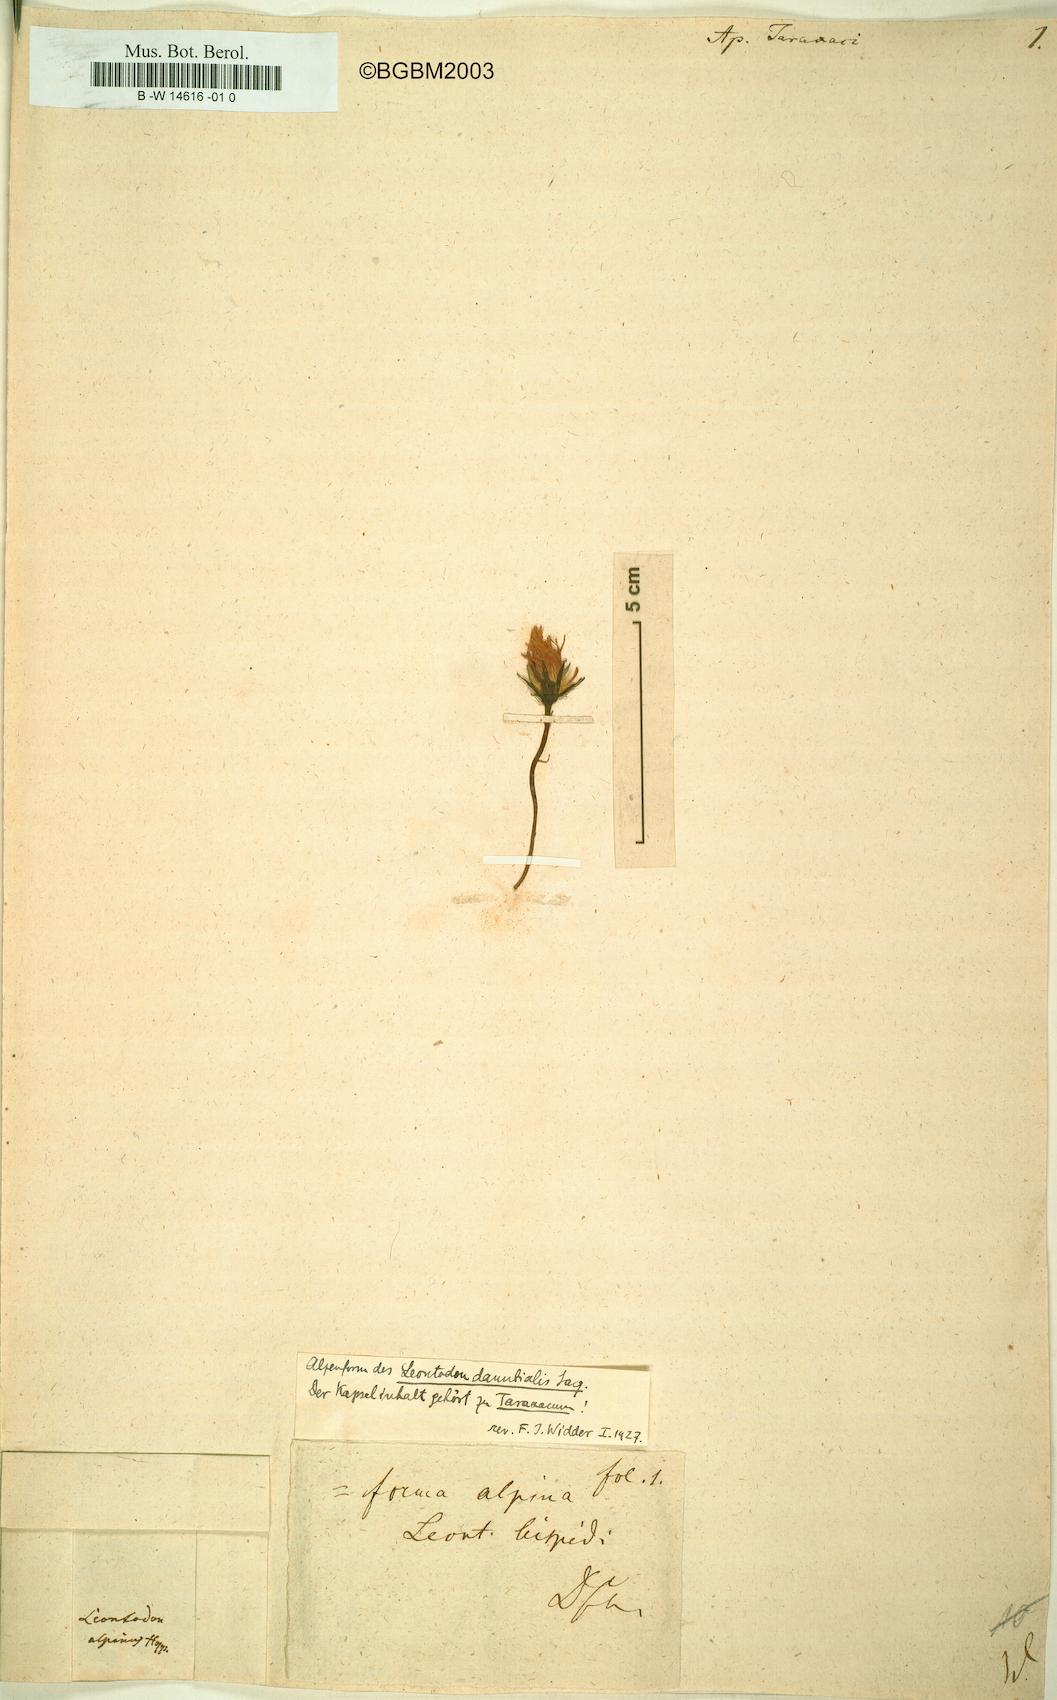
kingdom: Plantae
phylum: Tracheophyta
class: Magnoliopsida
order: Asterales
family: Asteraceae
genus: Scorzoneroides
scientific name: Scorzoneroides
